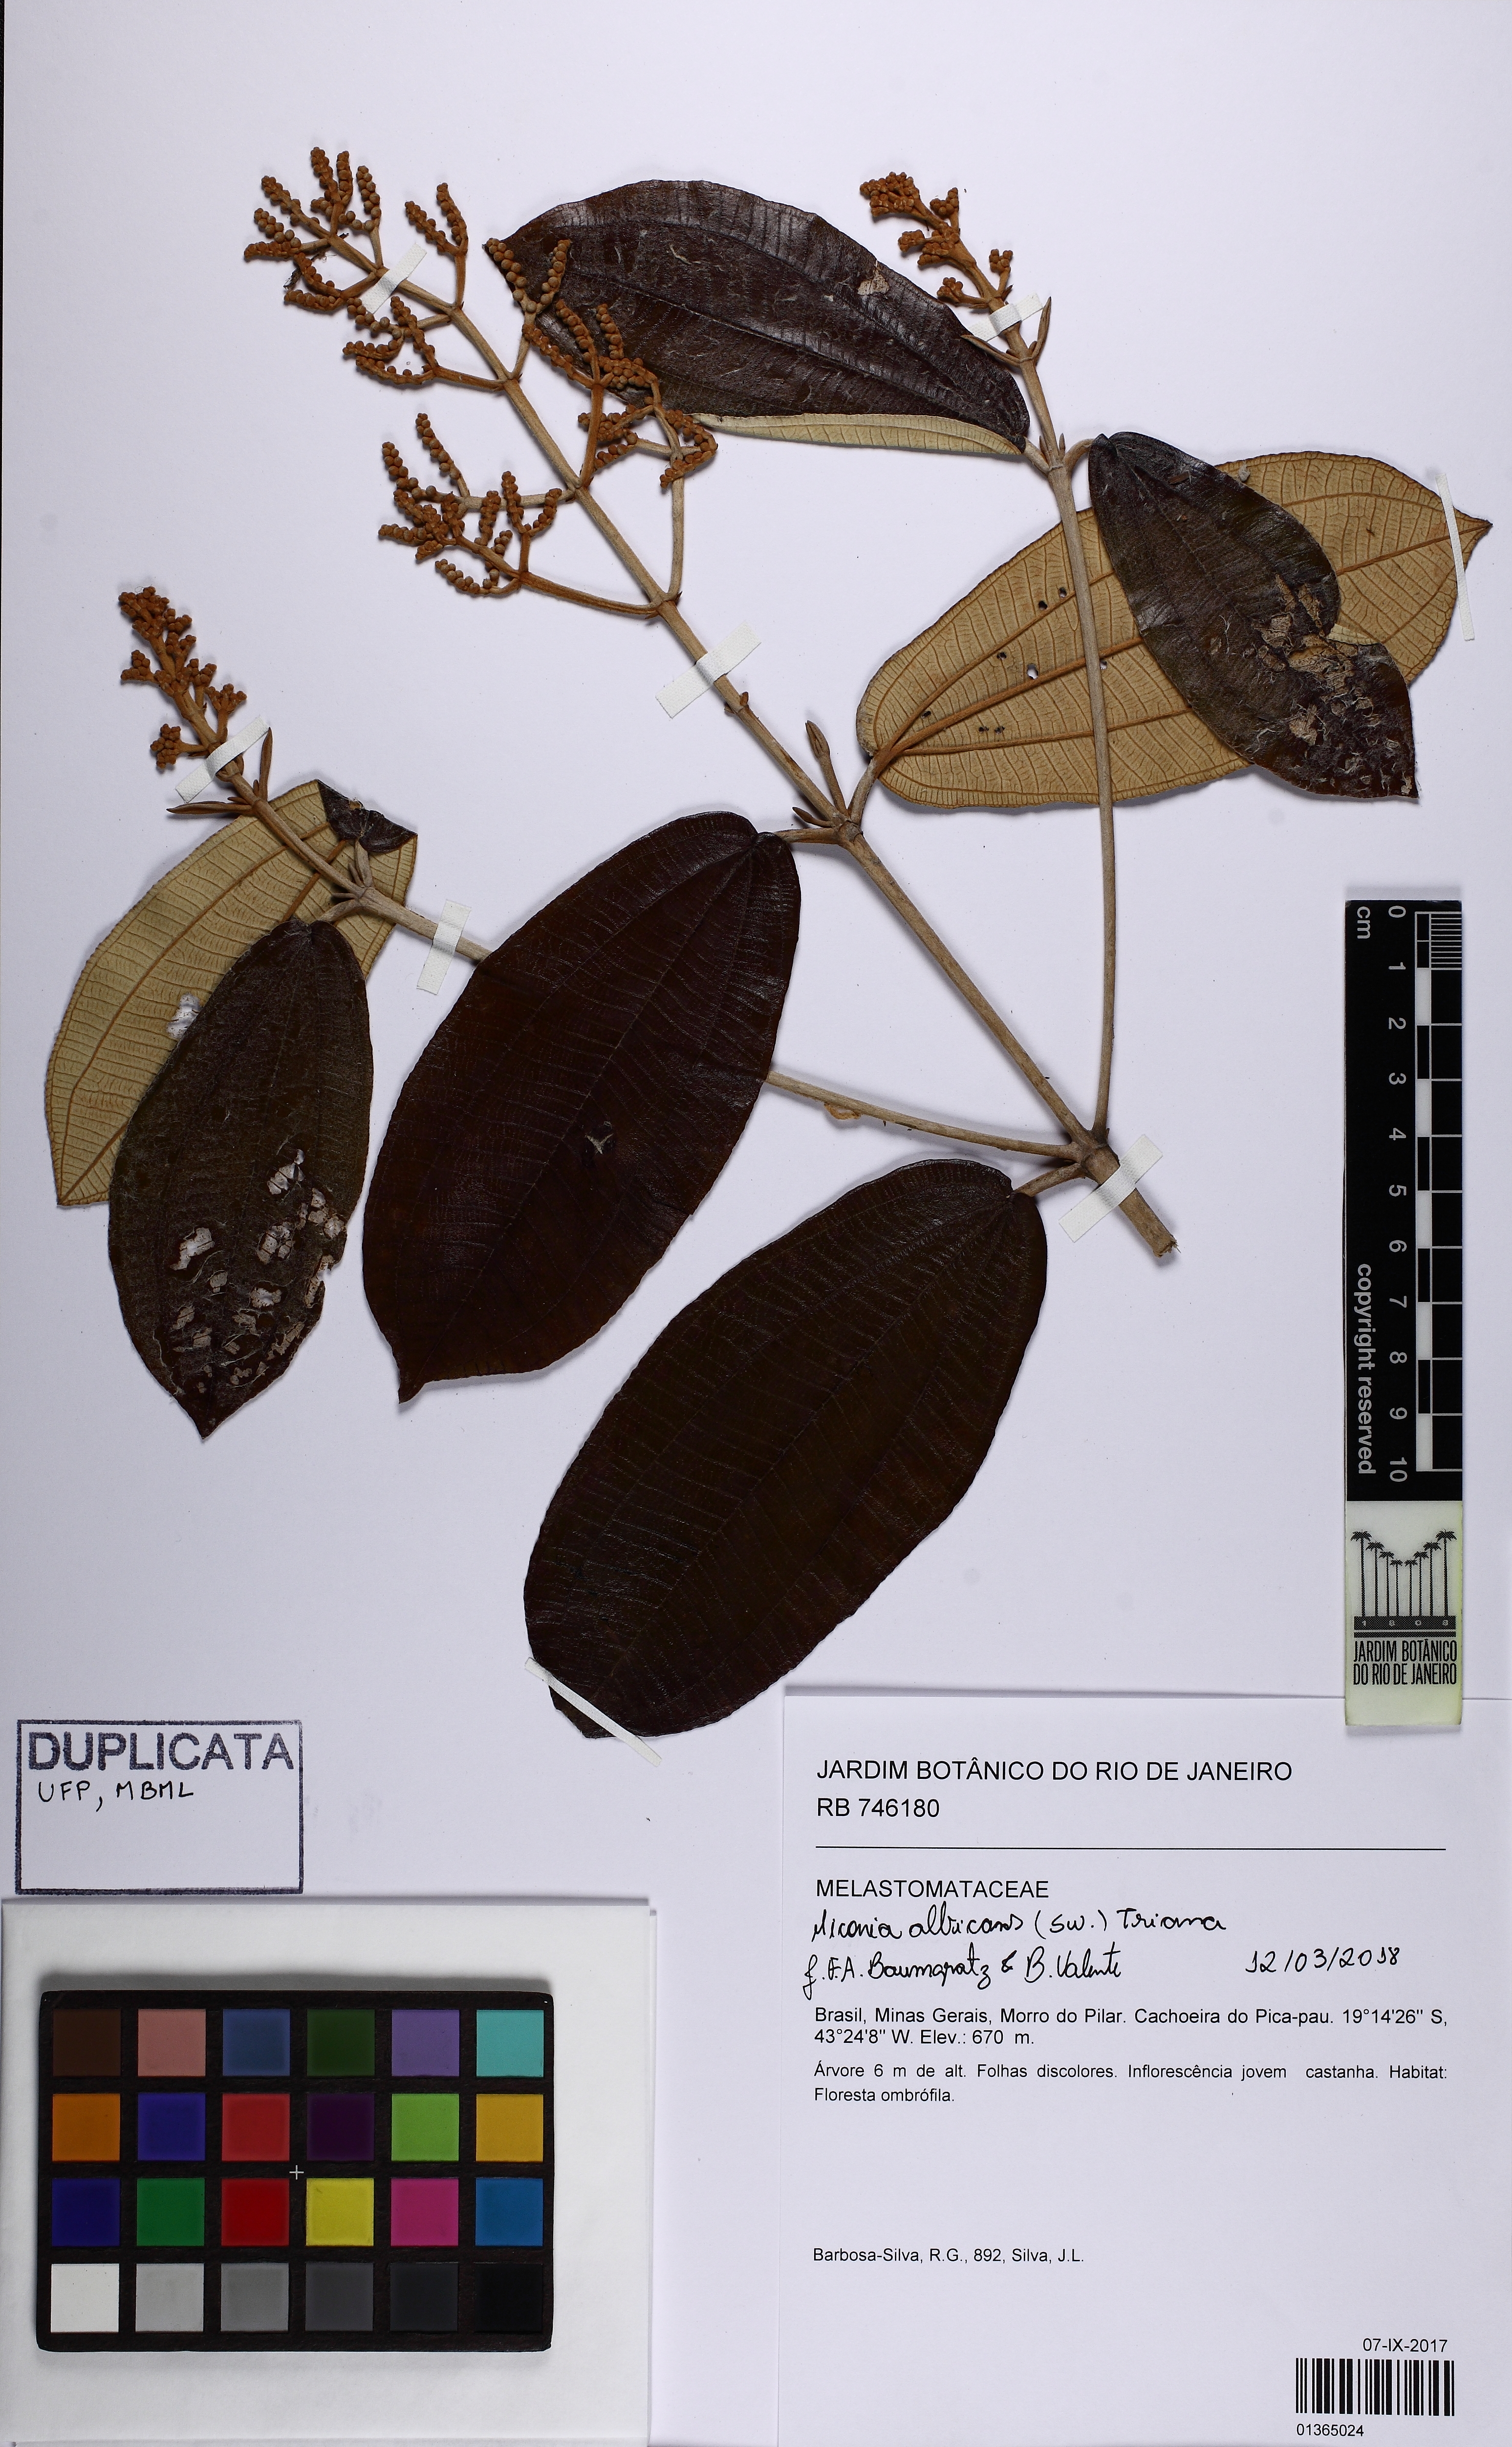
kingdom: Plantae
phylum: Tracheophyta
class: Magnoliopsida
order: Myrtales
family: Melastomataceae
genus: Miconia
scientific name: Miconia albicans
